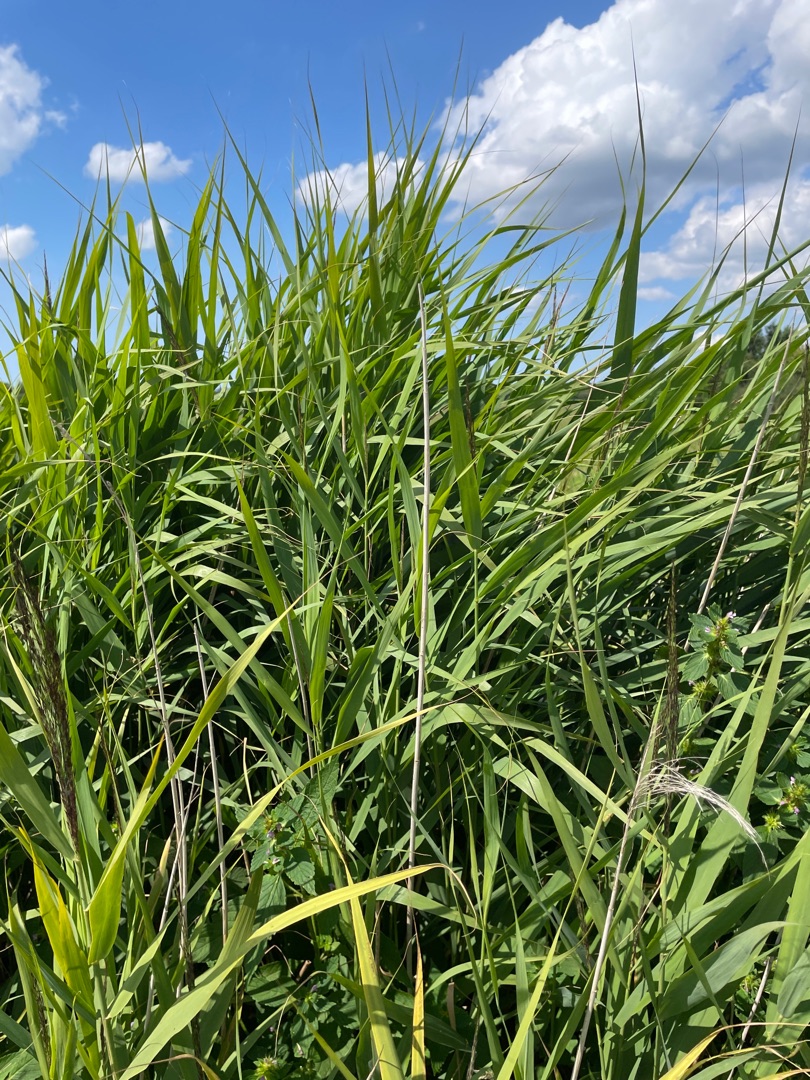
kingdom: Plantae
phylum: Tracheophyta
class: Liliopsida
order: Poales
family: Poaceae
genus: Phragmites
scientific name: Phragmites australis
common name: Tagrør
